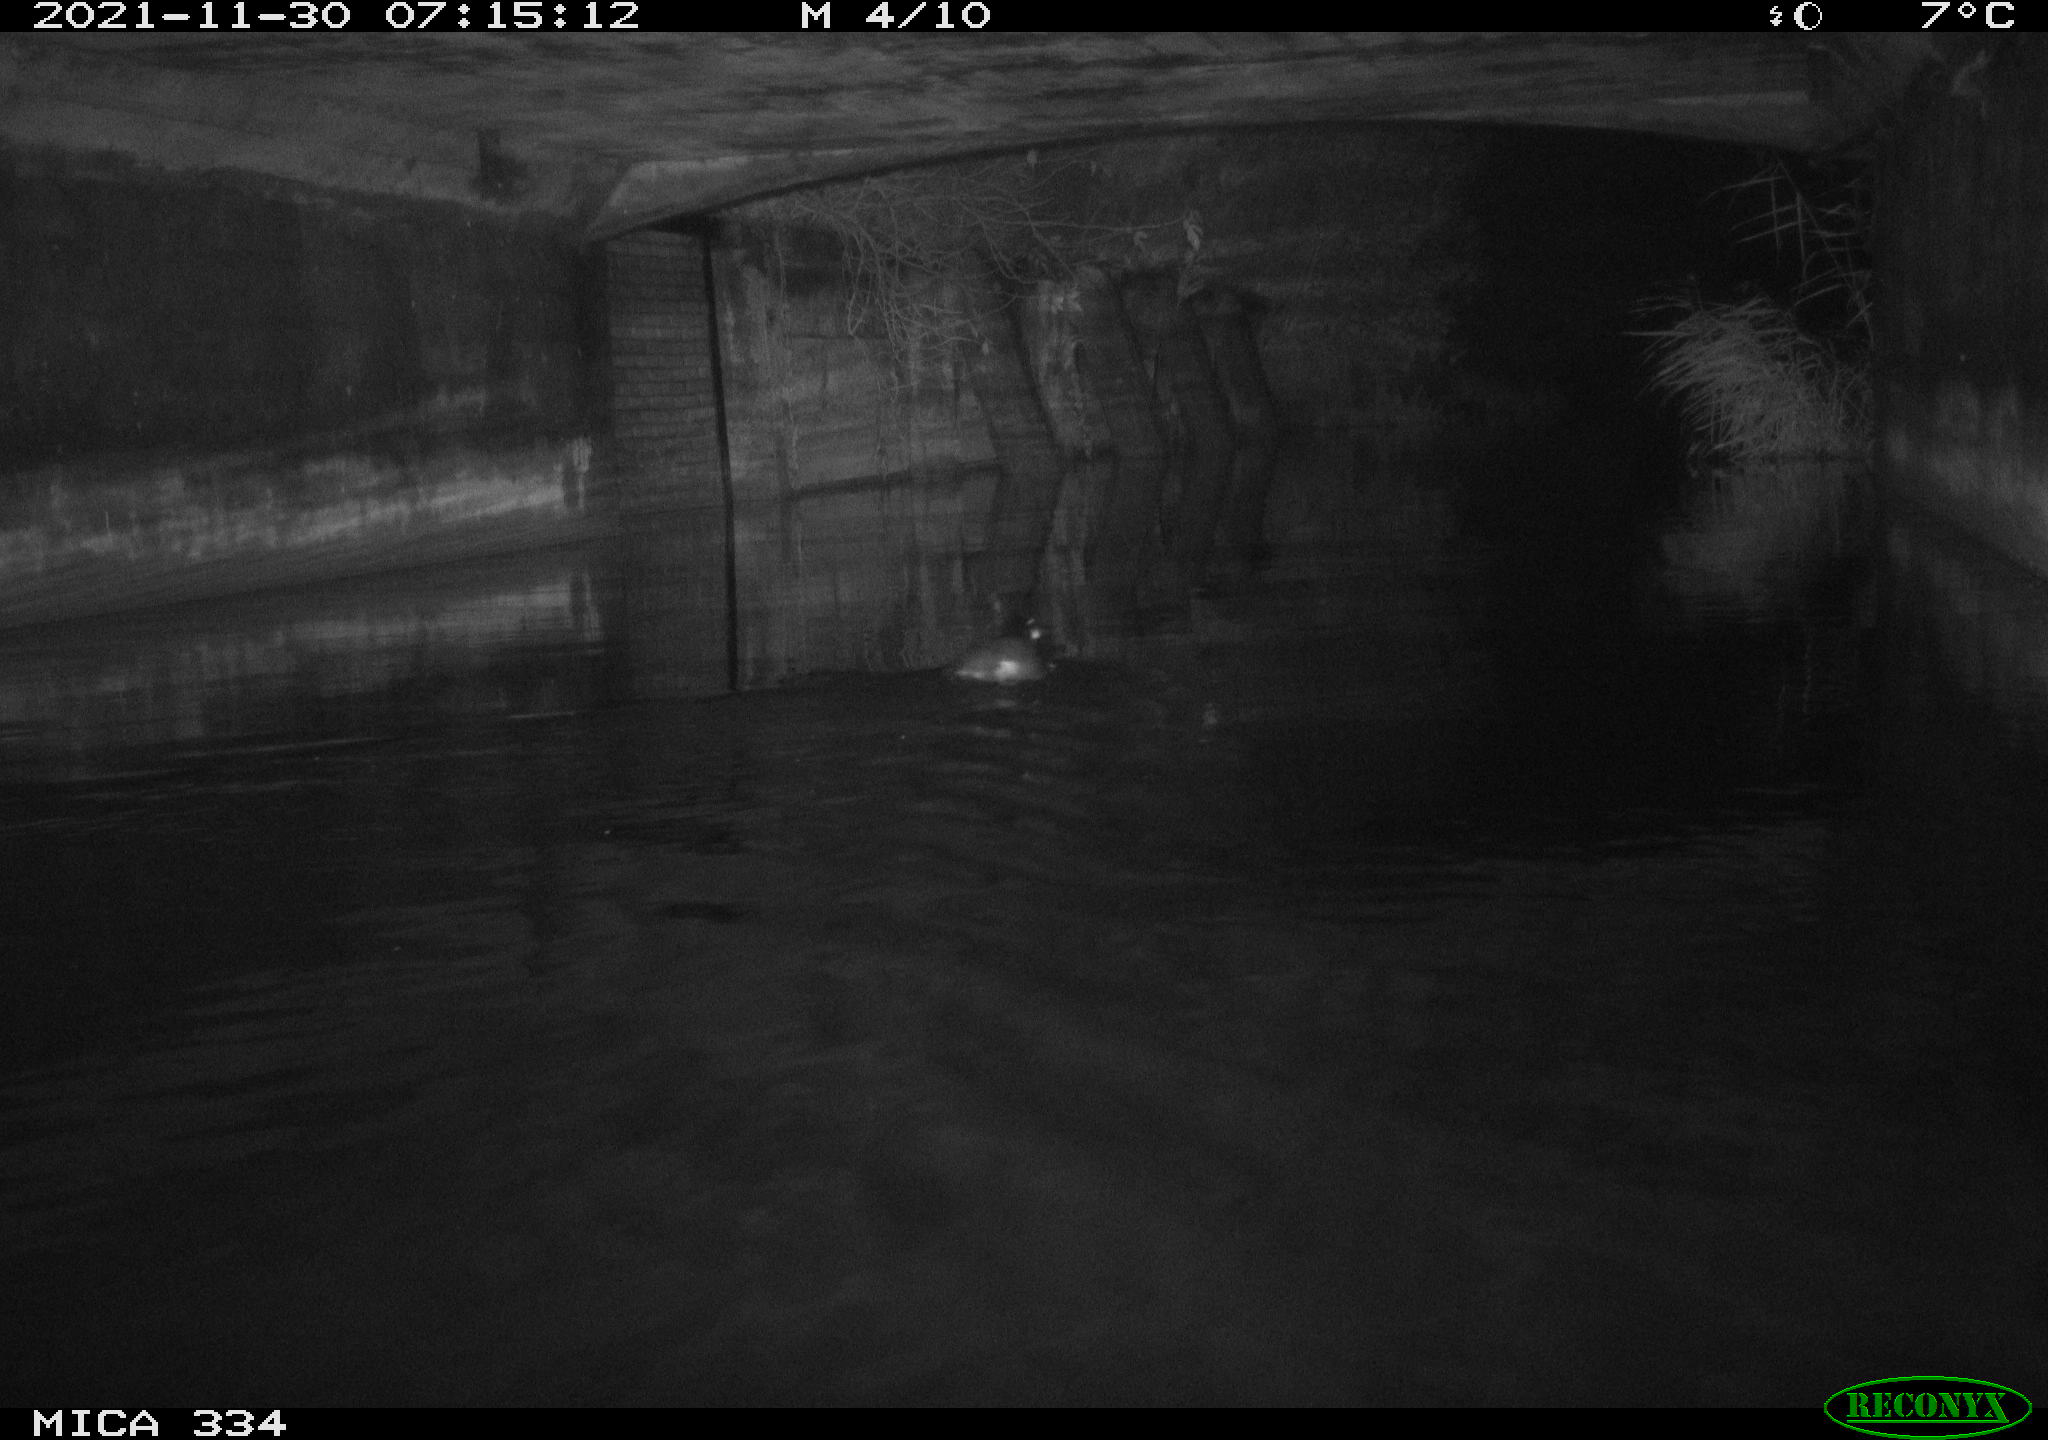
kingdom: Animalia
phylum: Chordata
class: Aves
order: Gruiformes
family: Rallidae
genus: Gallinula
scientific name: Gallinula chloropus
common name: Common moorhen
